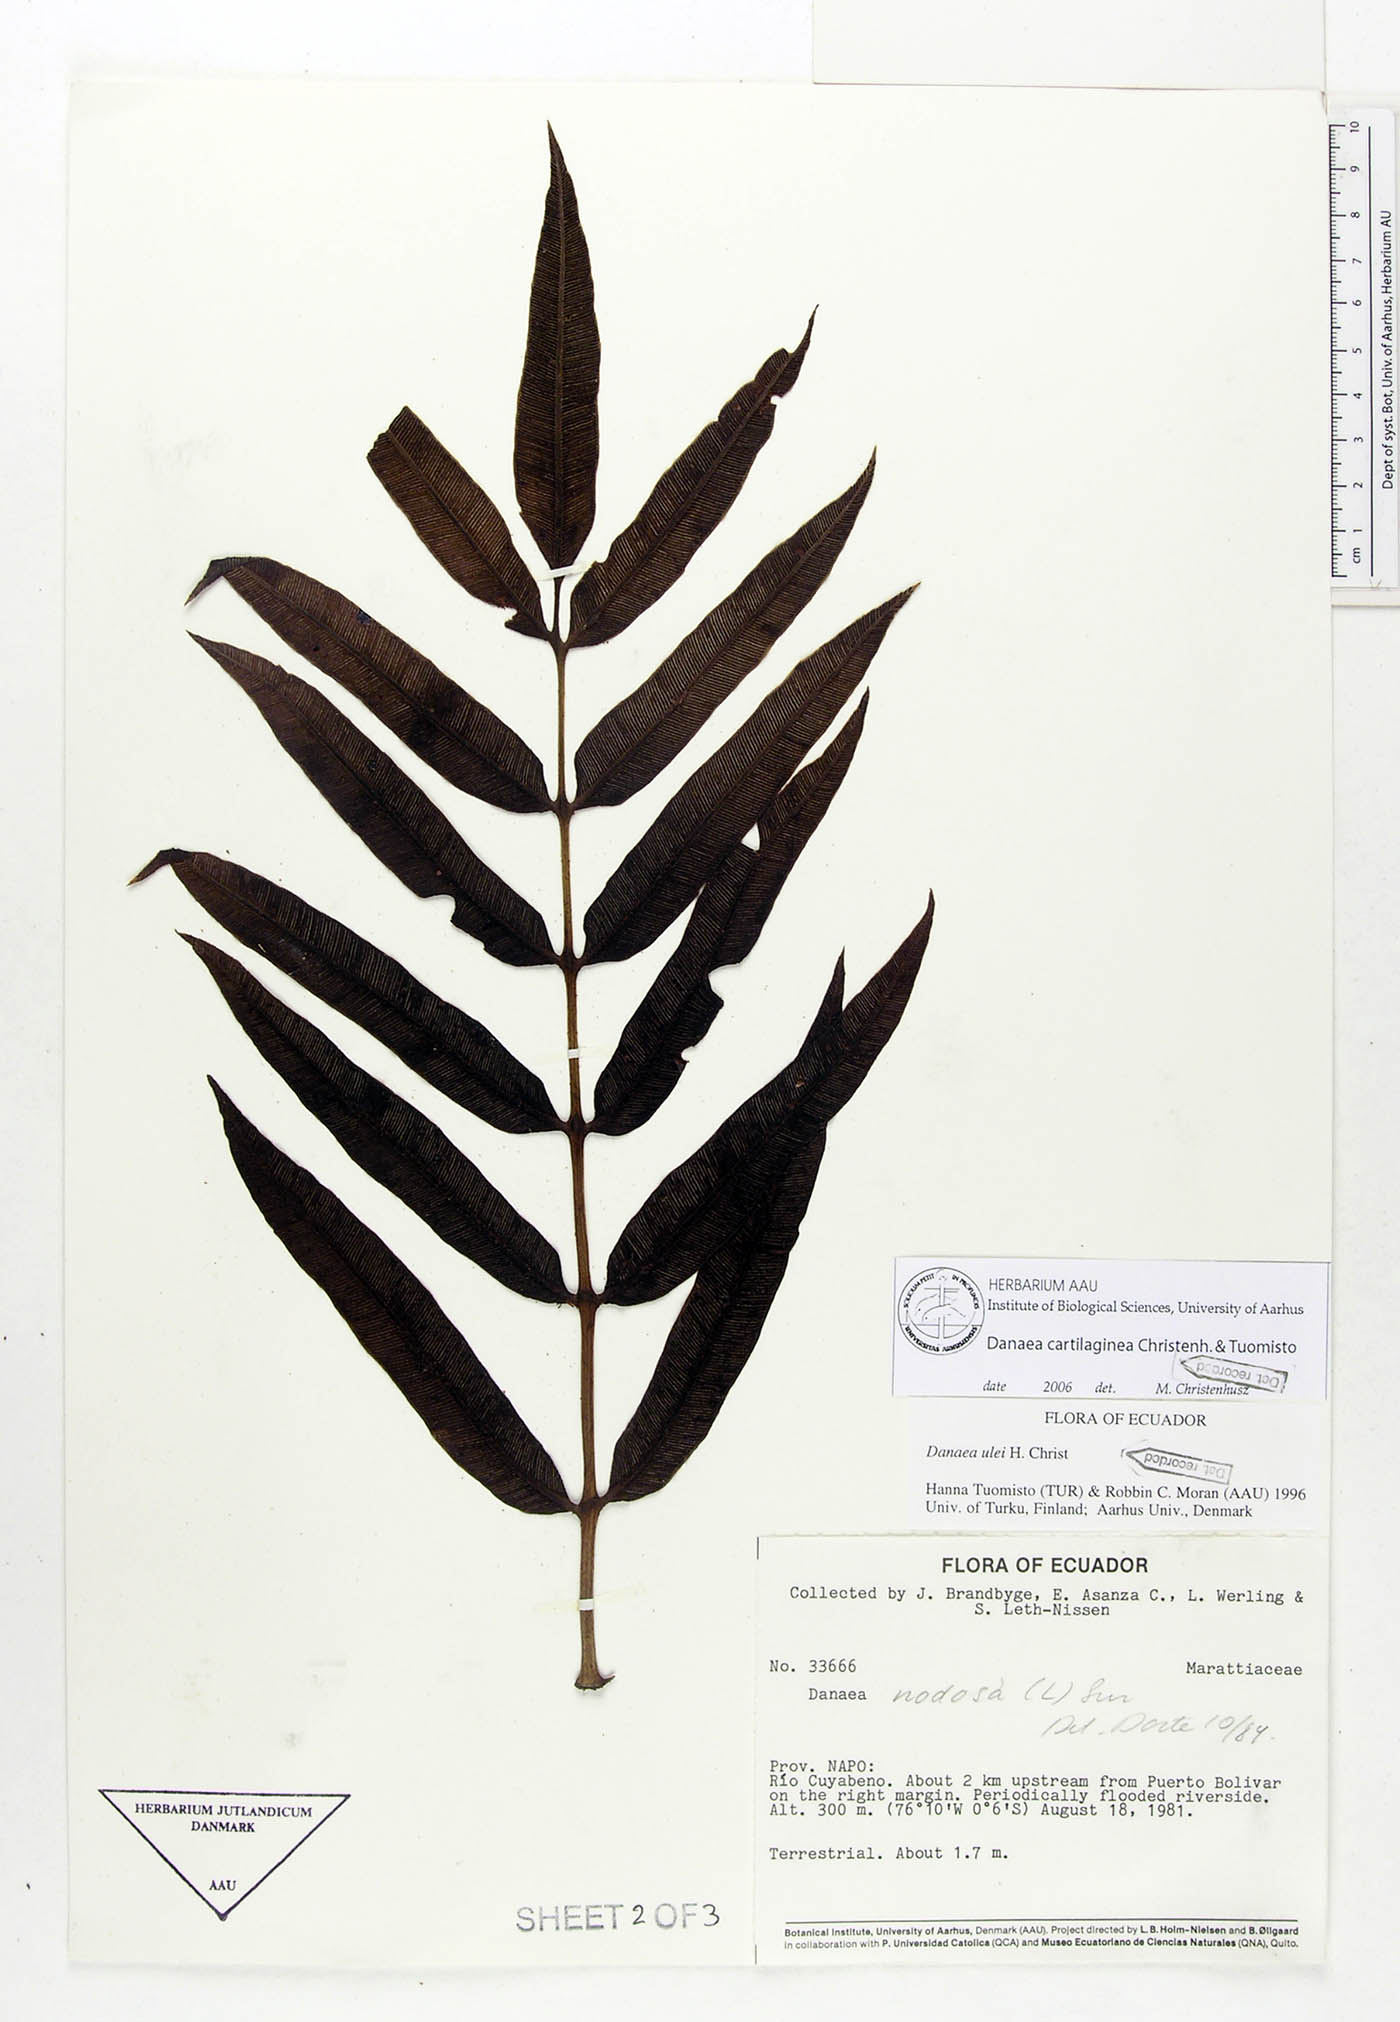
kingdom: Plantae
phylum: Tracheophyta
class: Polypodiopsida
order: Marattiales
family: Marattiaceae
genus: Danaea
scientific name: Danaea cartilaginea
